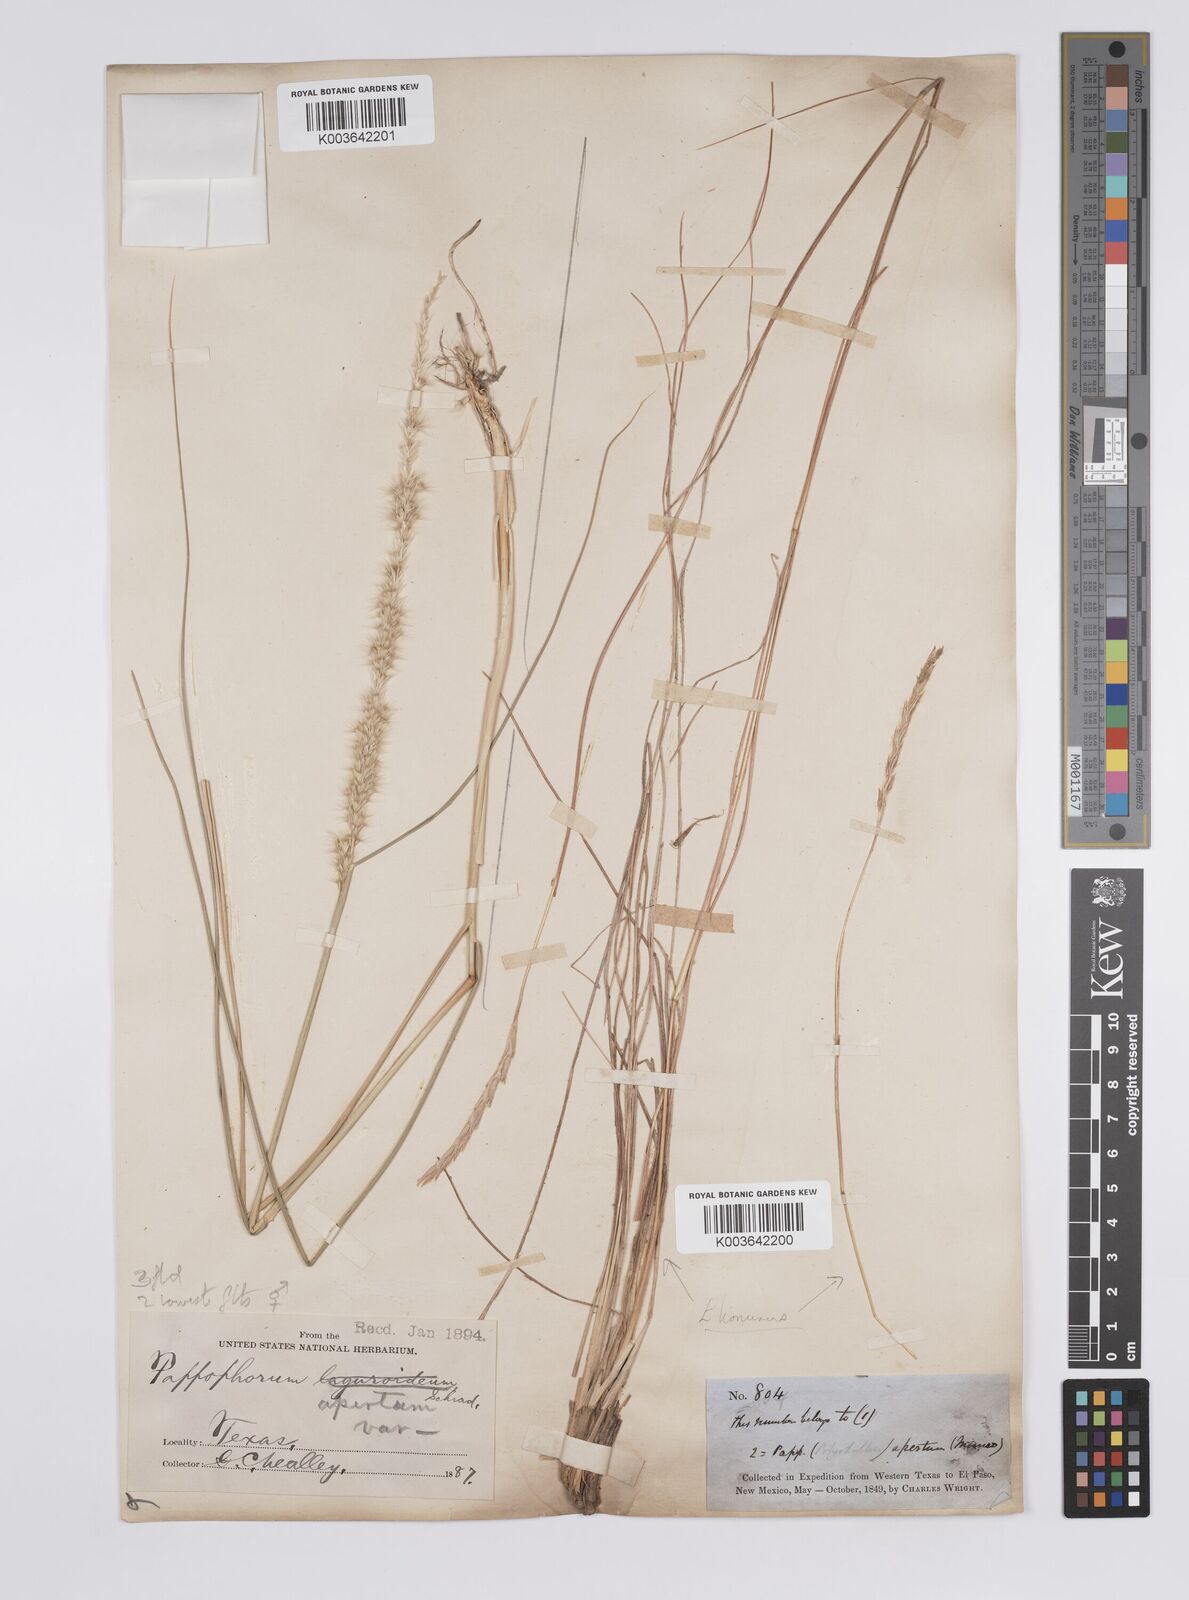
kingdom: Plantae
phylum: Tracheophyta
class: Liliopsida
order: Poales
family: Poaceae
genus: Pappophorum
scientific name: Pappophorum mucronulatum
